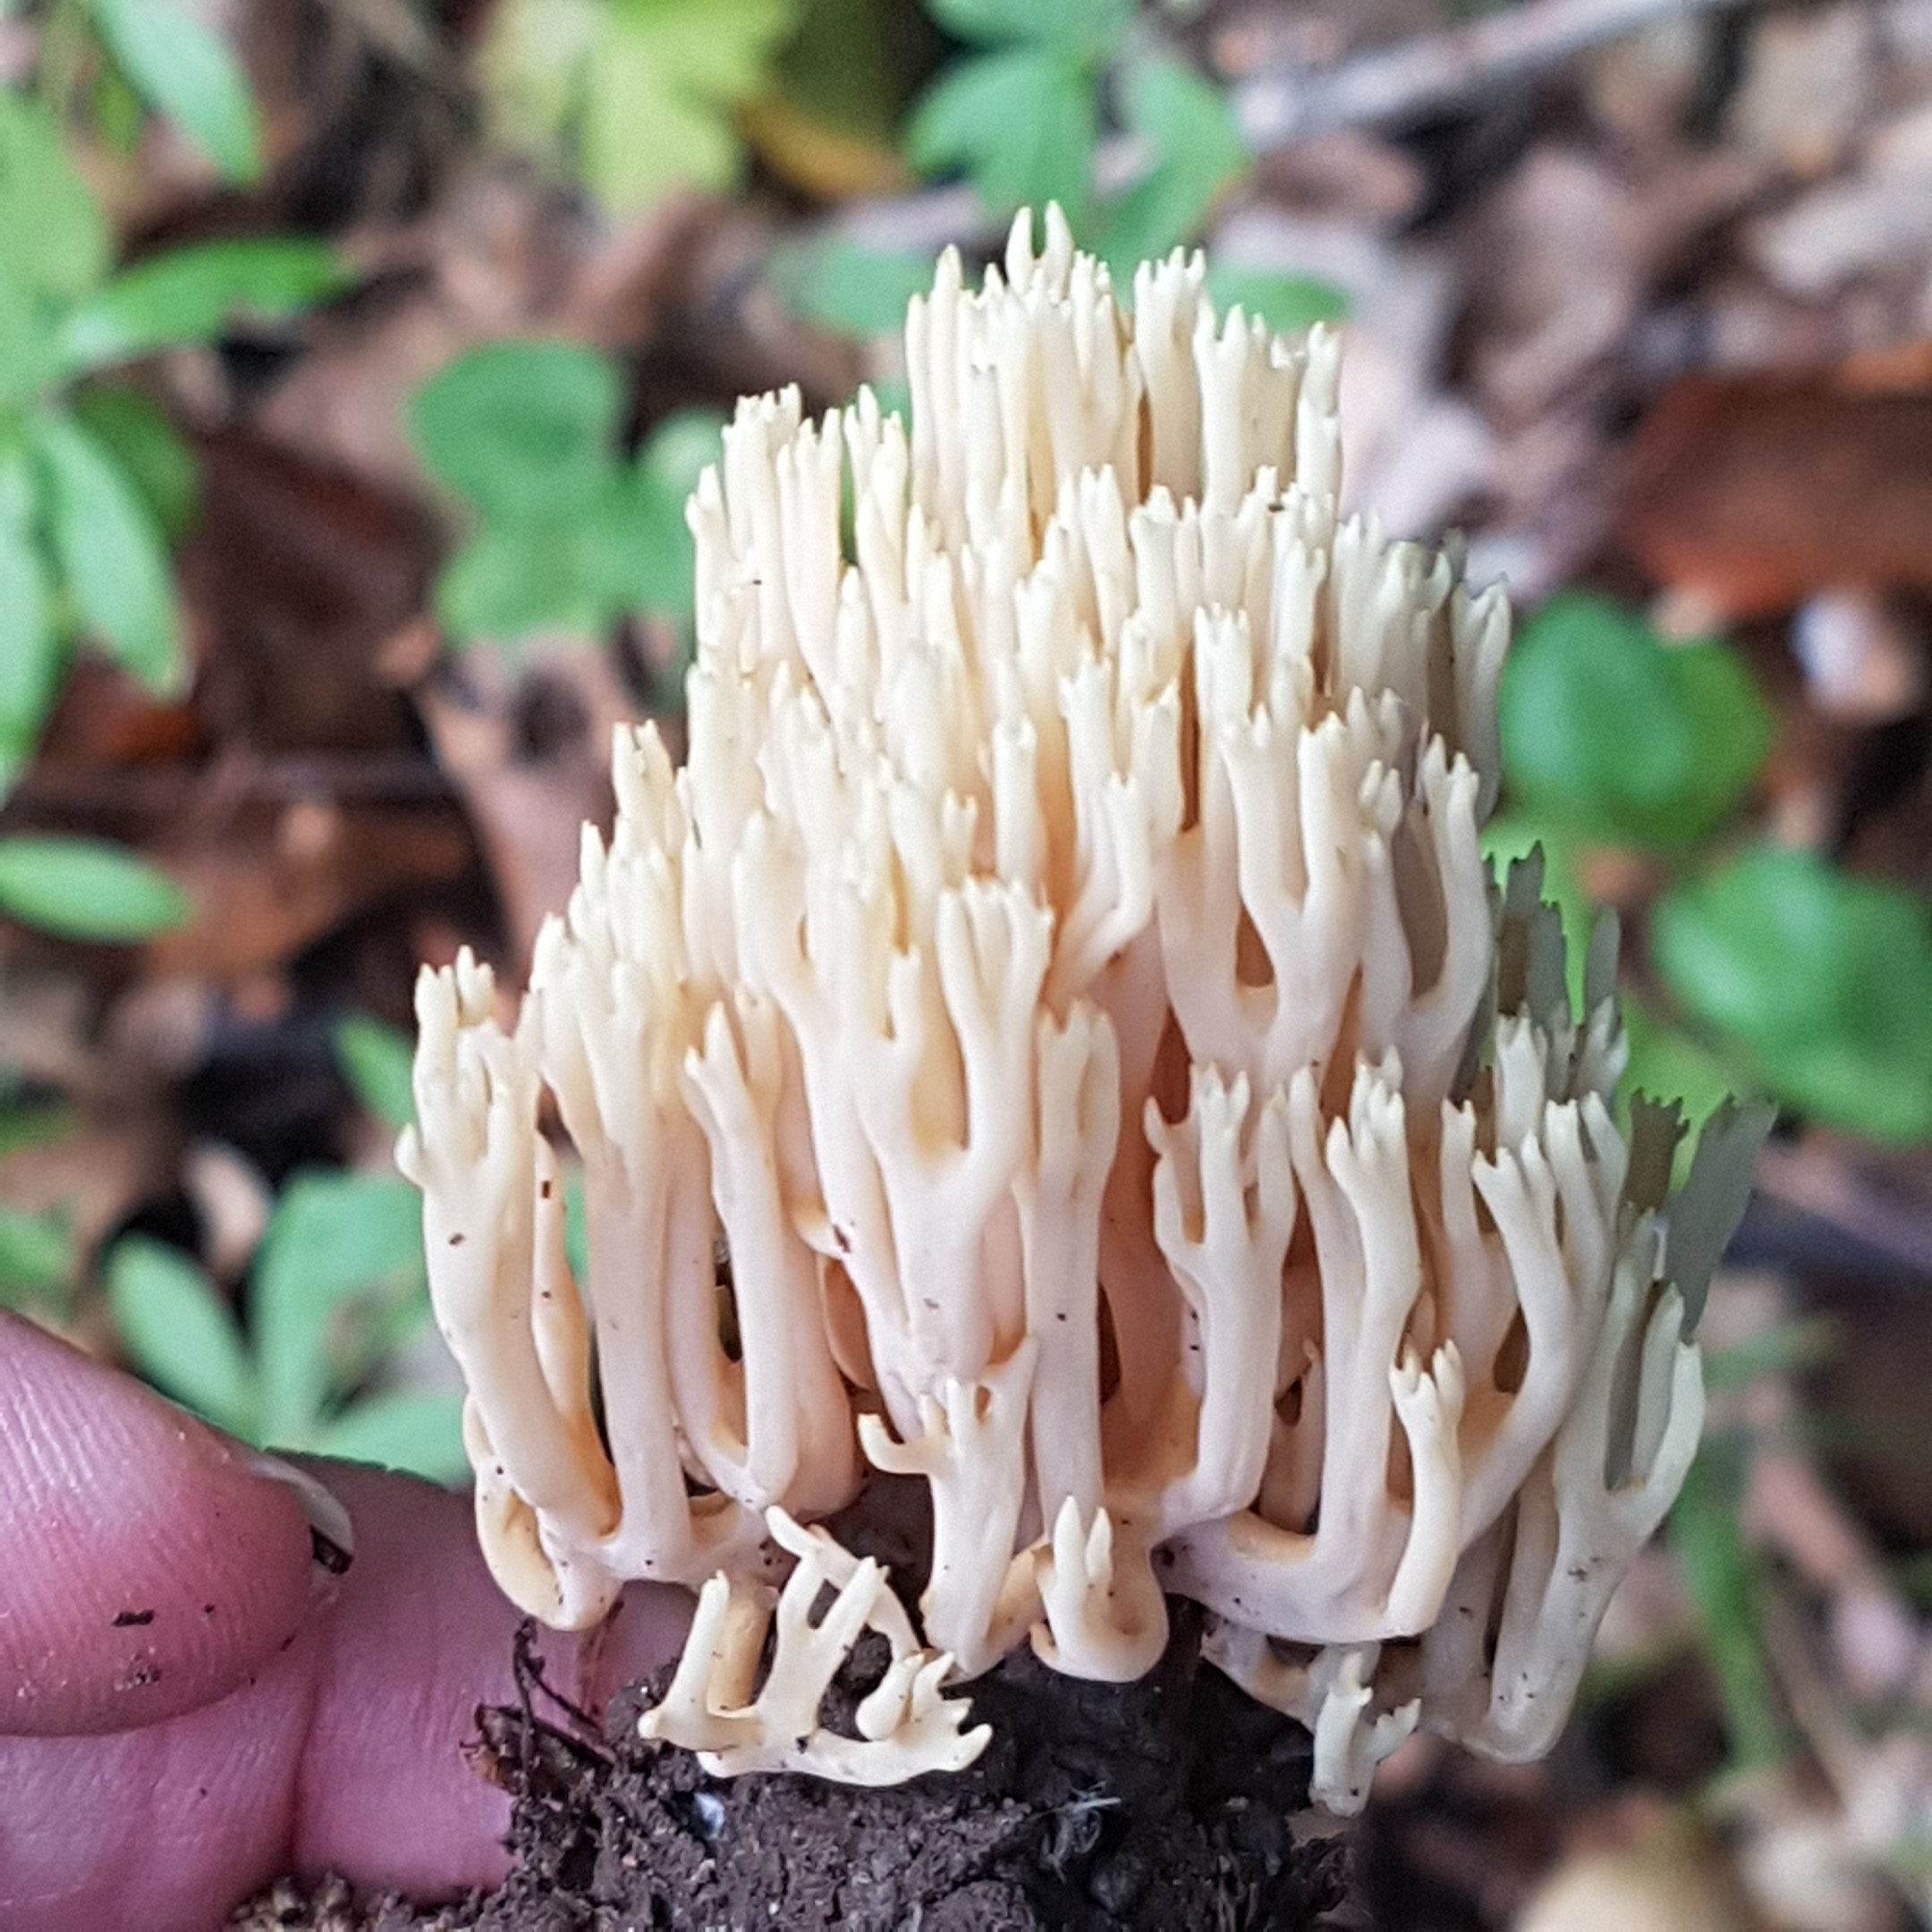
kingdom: Fungi
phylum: Basidiomycota
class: Agaricomycetes
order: Gomphales
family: Gomphaceae
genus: Ramaria
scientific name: Ramaria stricta
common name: rank koralsvamp
